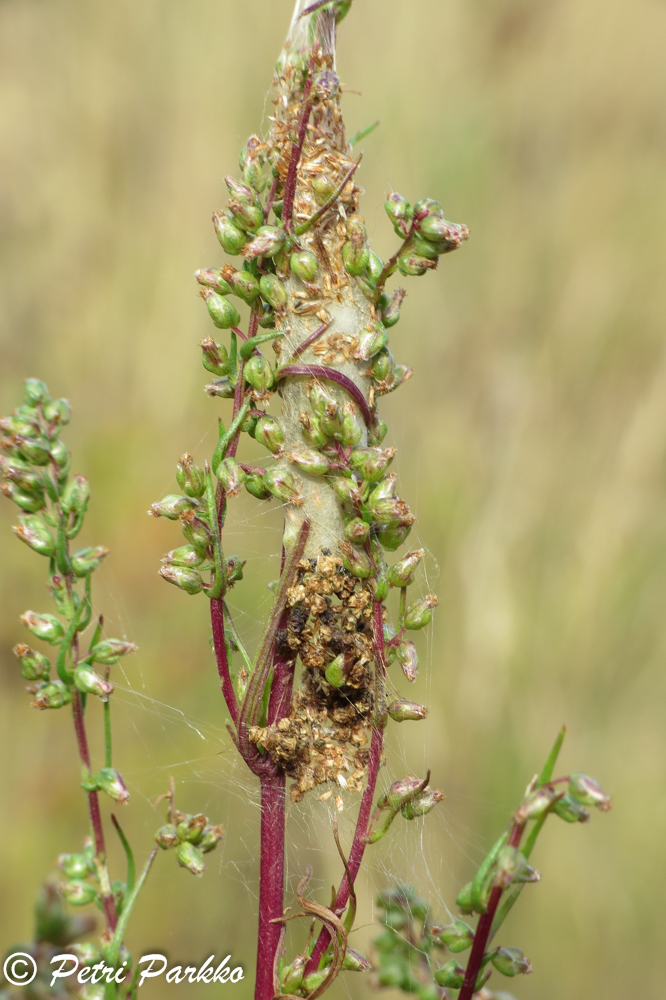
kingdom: Animalia
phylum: Arthropoda
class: Insecta
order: Lepidoptera
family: Crambidae
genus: Loxostege
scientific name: Loxostege turbidalis
